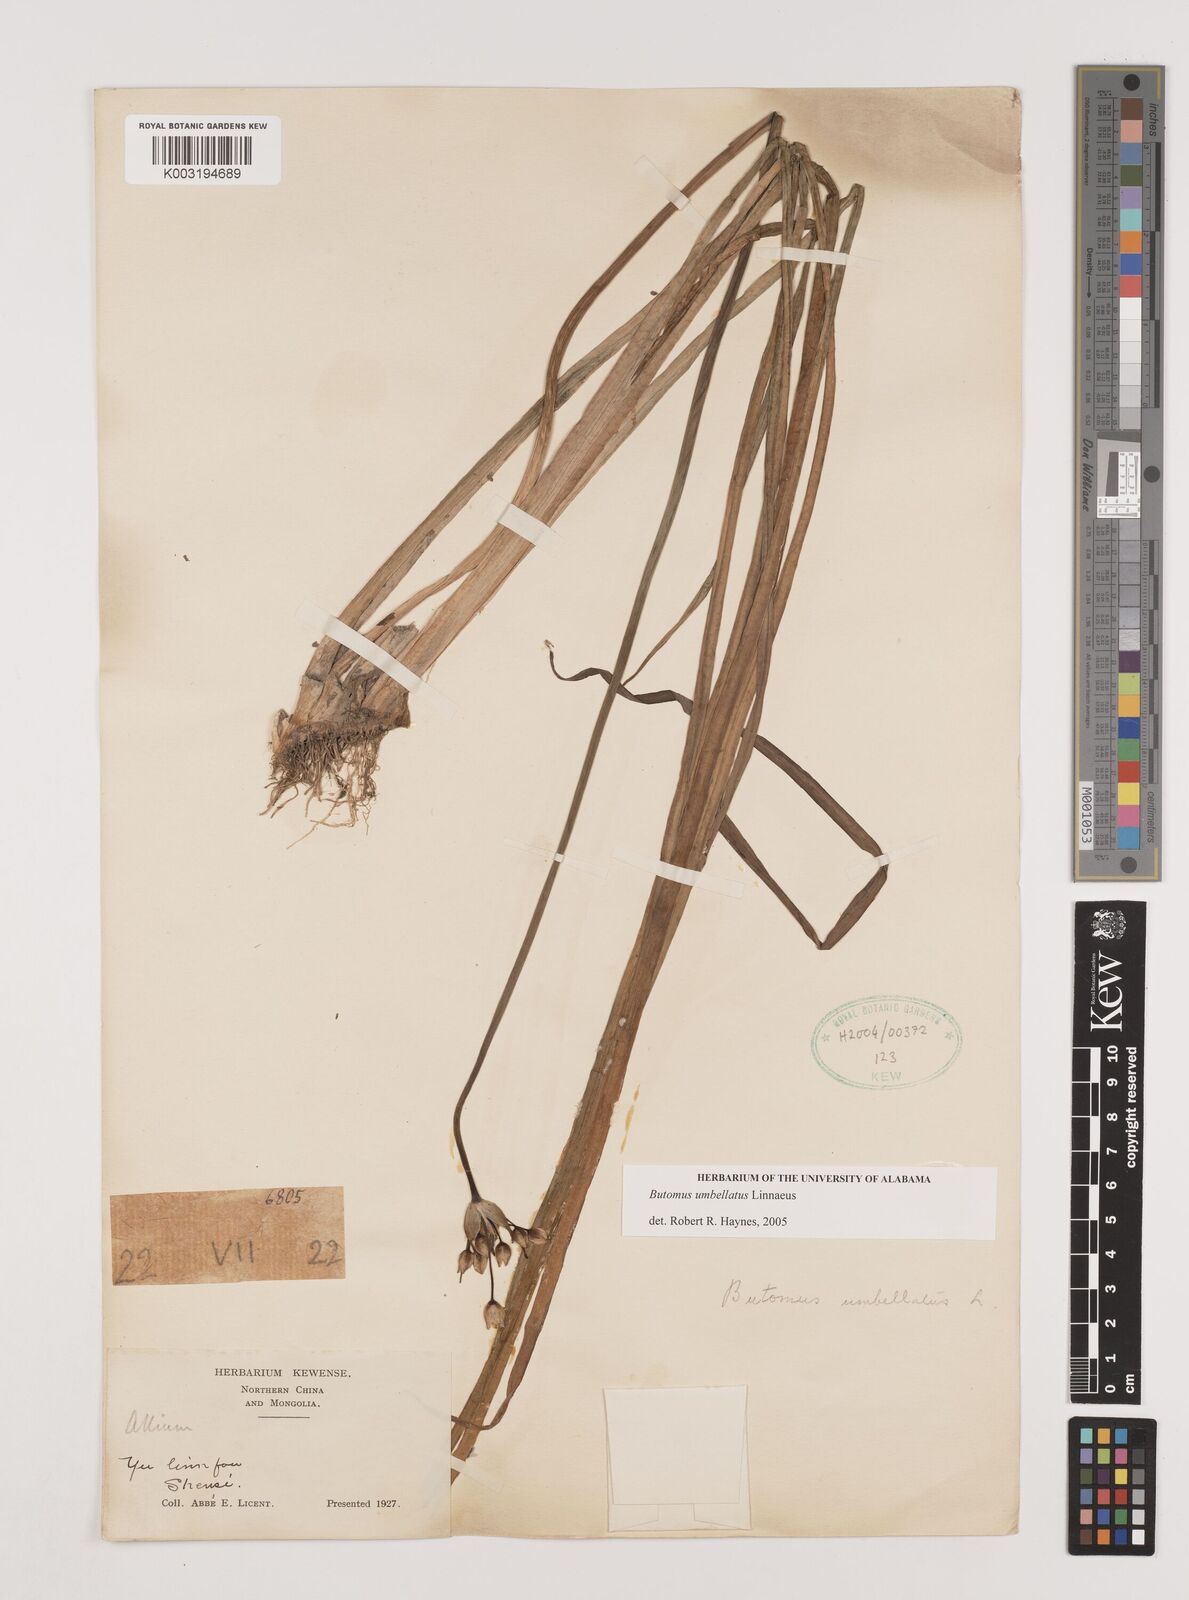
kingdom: Plantae
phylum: Tracheophyta
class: Liliopsida
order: Alismatales
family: Butomaceae
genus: Butomus
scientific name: Butomus umbellatus
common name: Flowering-rush
